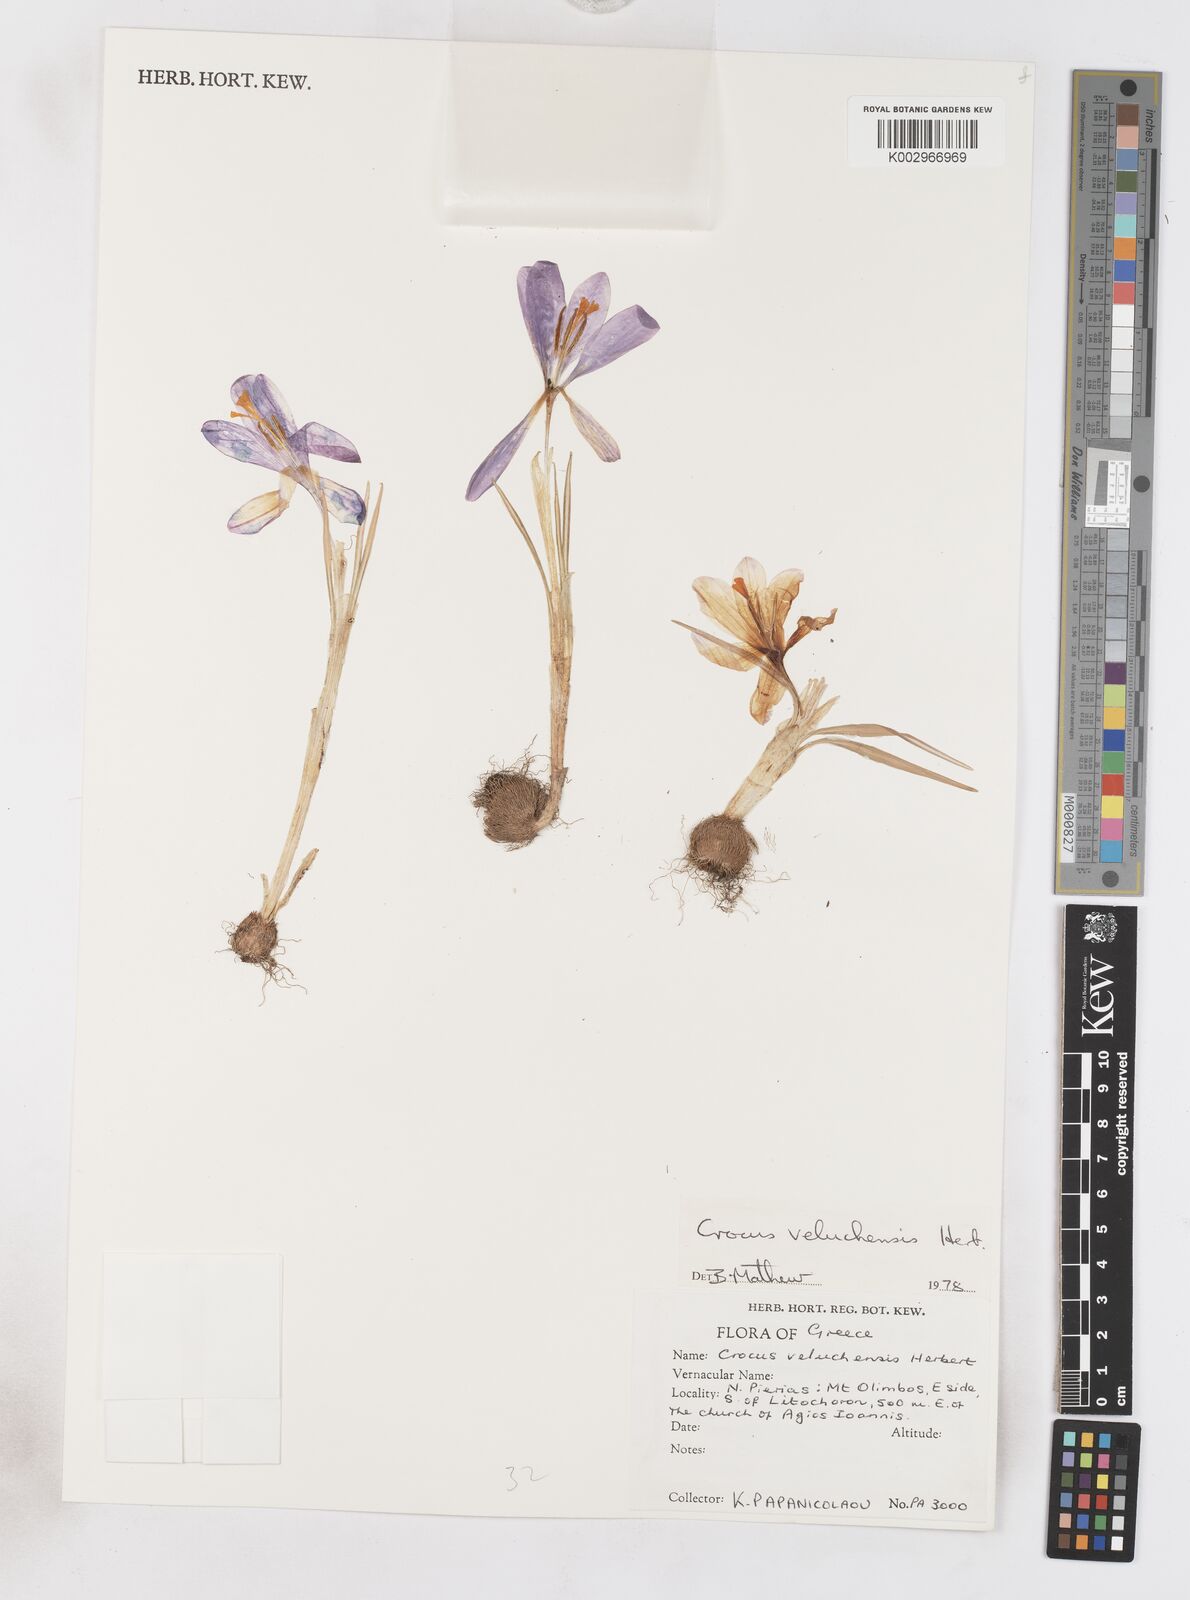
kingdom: Plantae
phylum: Tracheophyta
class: Liliopsida
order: Asparagales
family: Iridaceae
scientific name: Iridaceae
